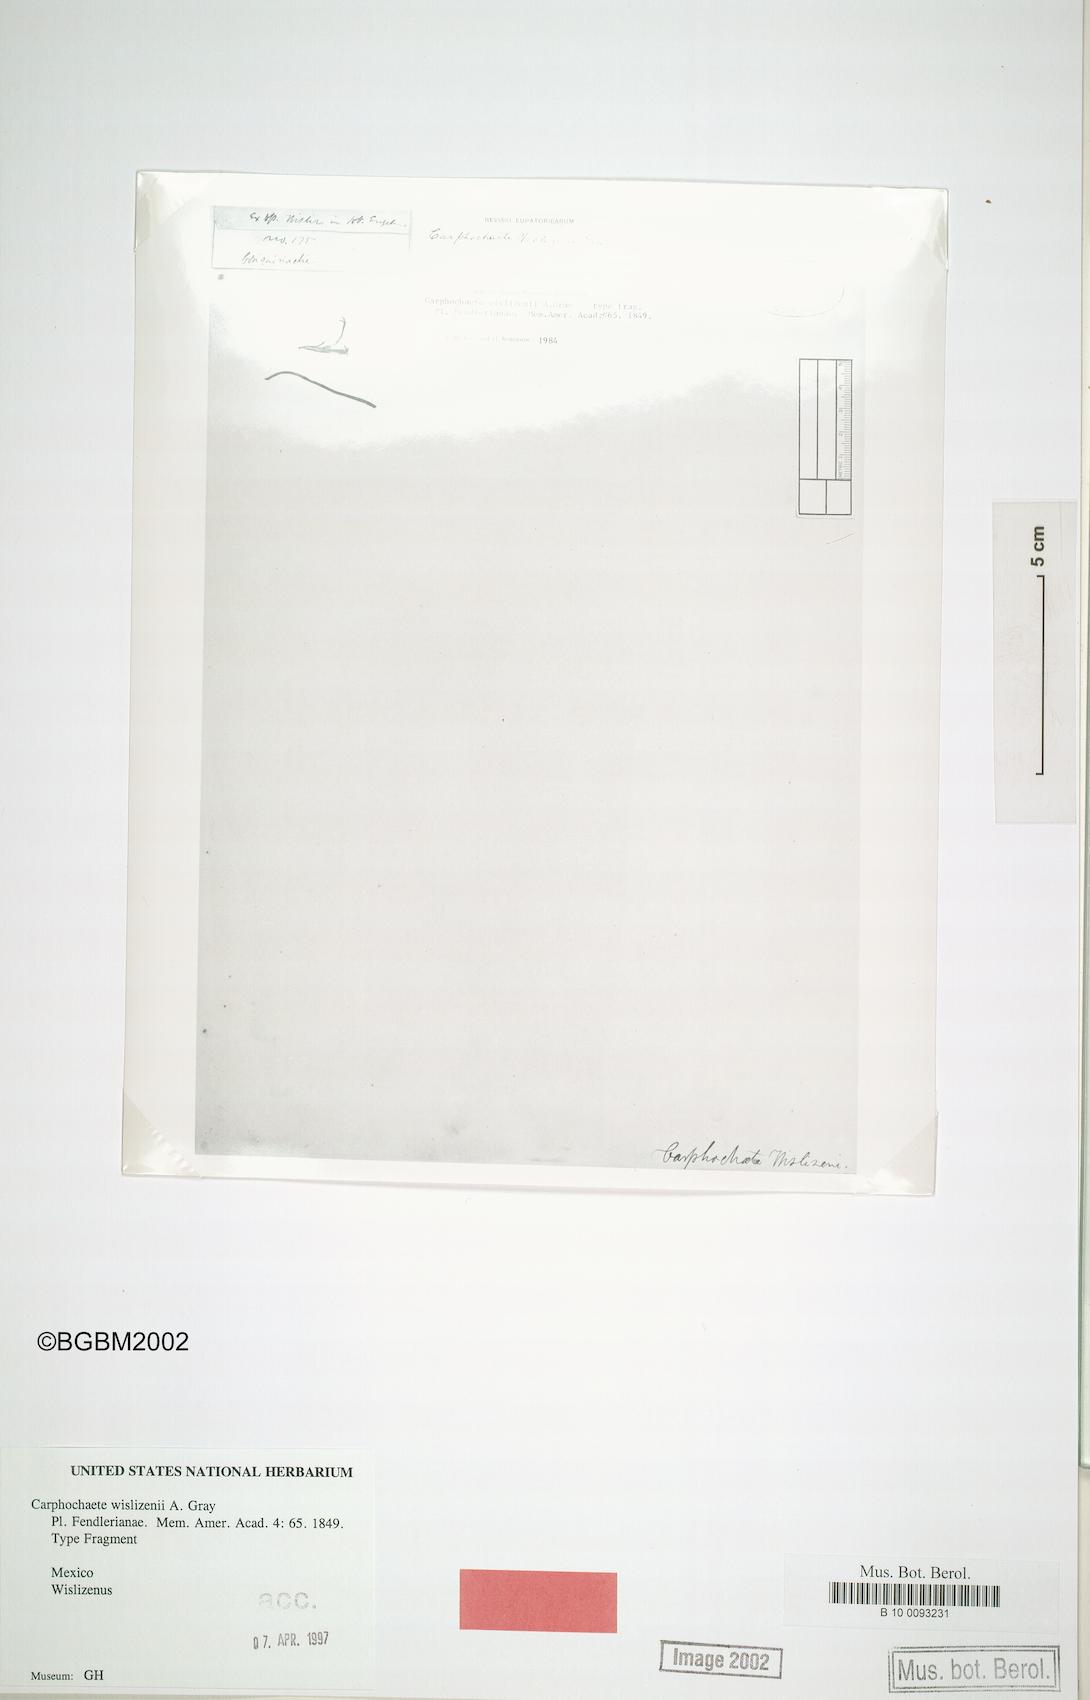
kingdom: Plantae
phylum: Tracheophyta
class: Magnoliopsida
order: Asterales
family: Asteraceae
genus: Carphochaete
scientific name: Carphochaete wislizenii
